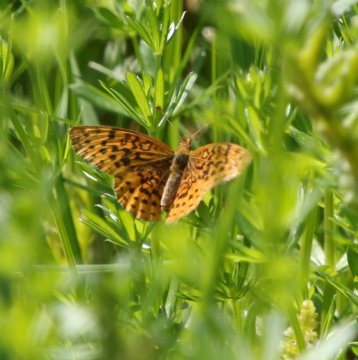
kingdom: Animalia
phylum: Arthropoda
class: Insecta
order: Lepidoptera
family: Nymphalidae
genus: Clossiana
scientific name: Clossiana toddi
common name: Meadow Fritillary
